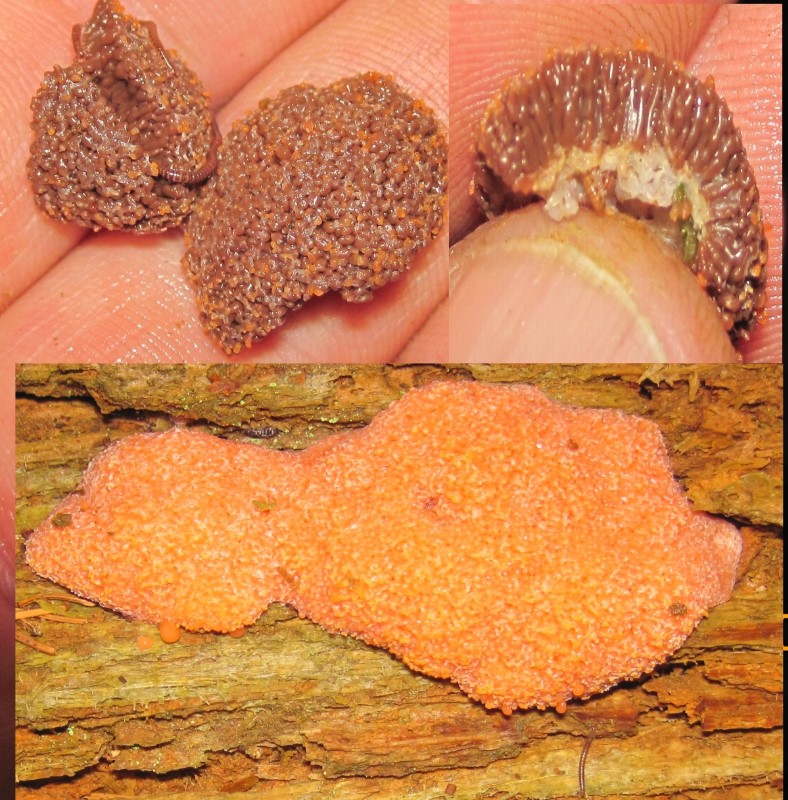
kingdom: Protozoa
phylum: Mycetozoa
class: Myxomycetes
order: Cribrariales
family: Tubiferaceae
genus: Tubifera
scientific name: Tubifera ferruginosa
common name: kanel-støvrør
